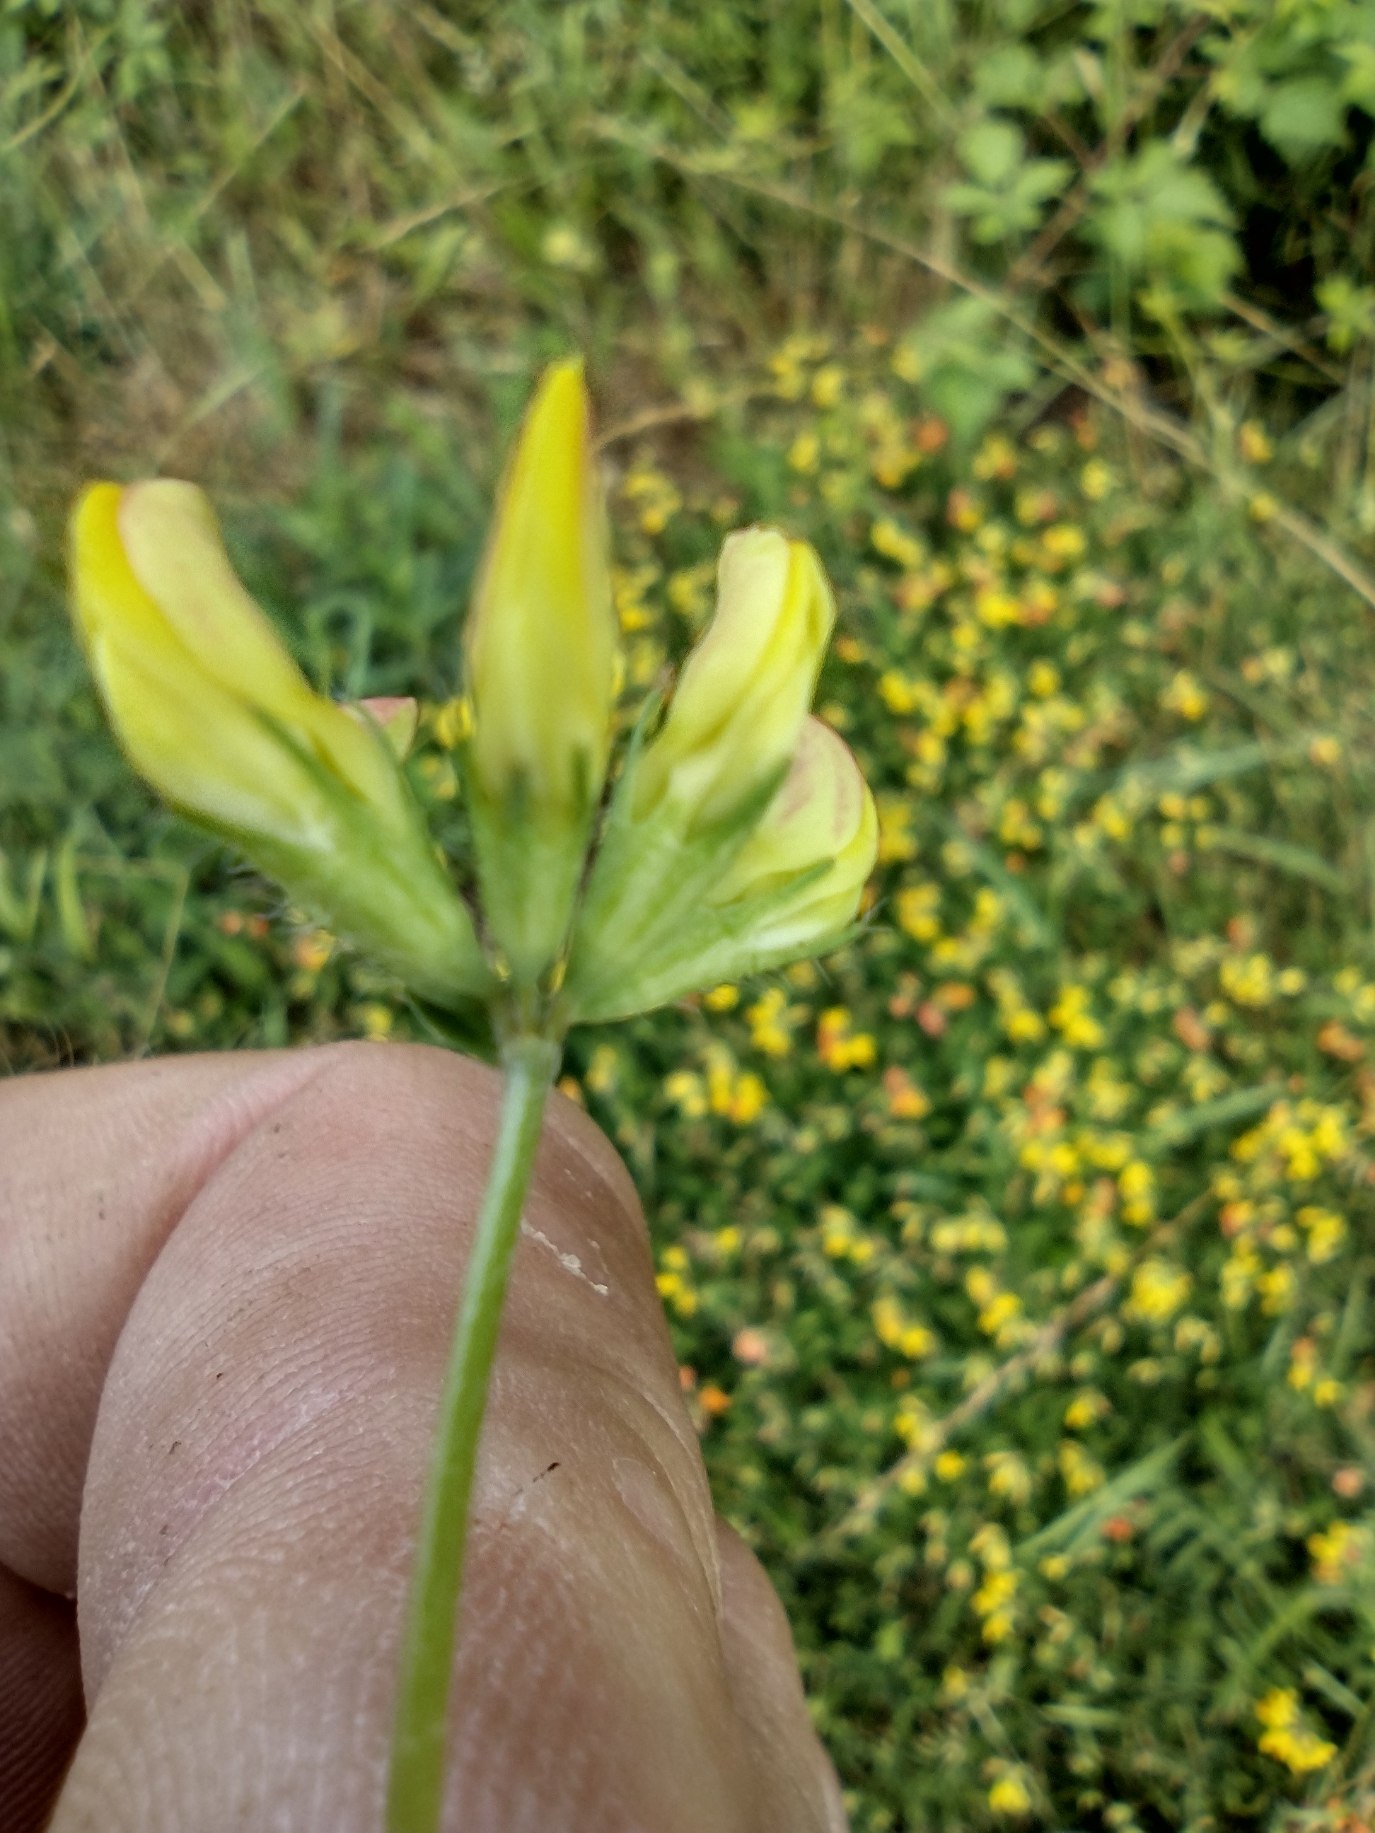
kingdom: Plantae
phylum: Tracheophyta
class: Magnoliopsida
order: Fabales
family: Fabaceae
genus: Lotus
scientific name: Lotus corniculatus
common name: Almindelig kællingetand
